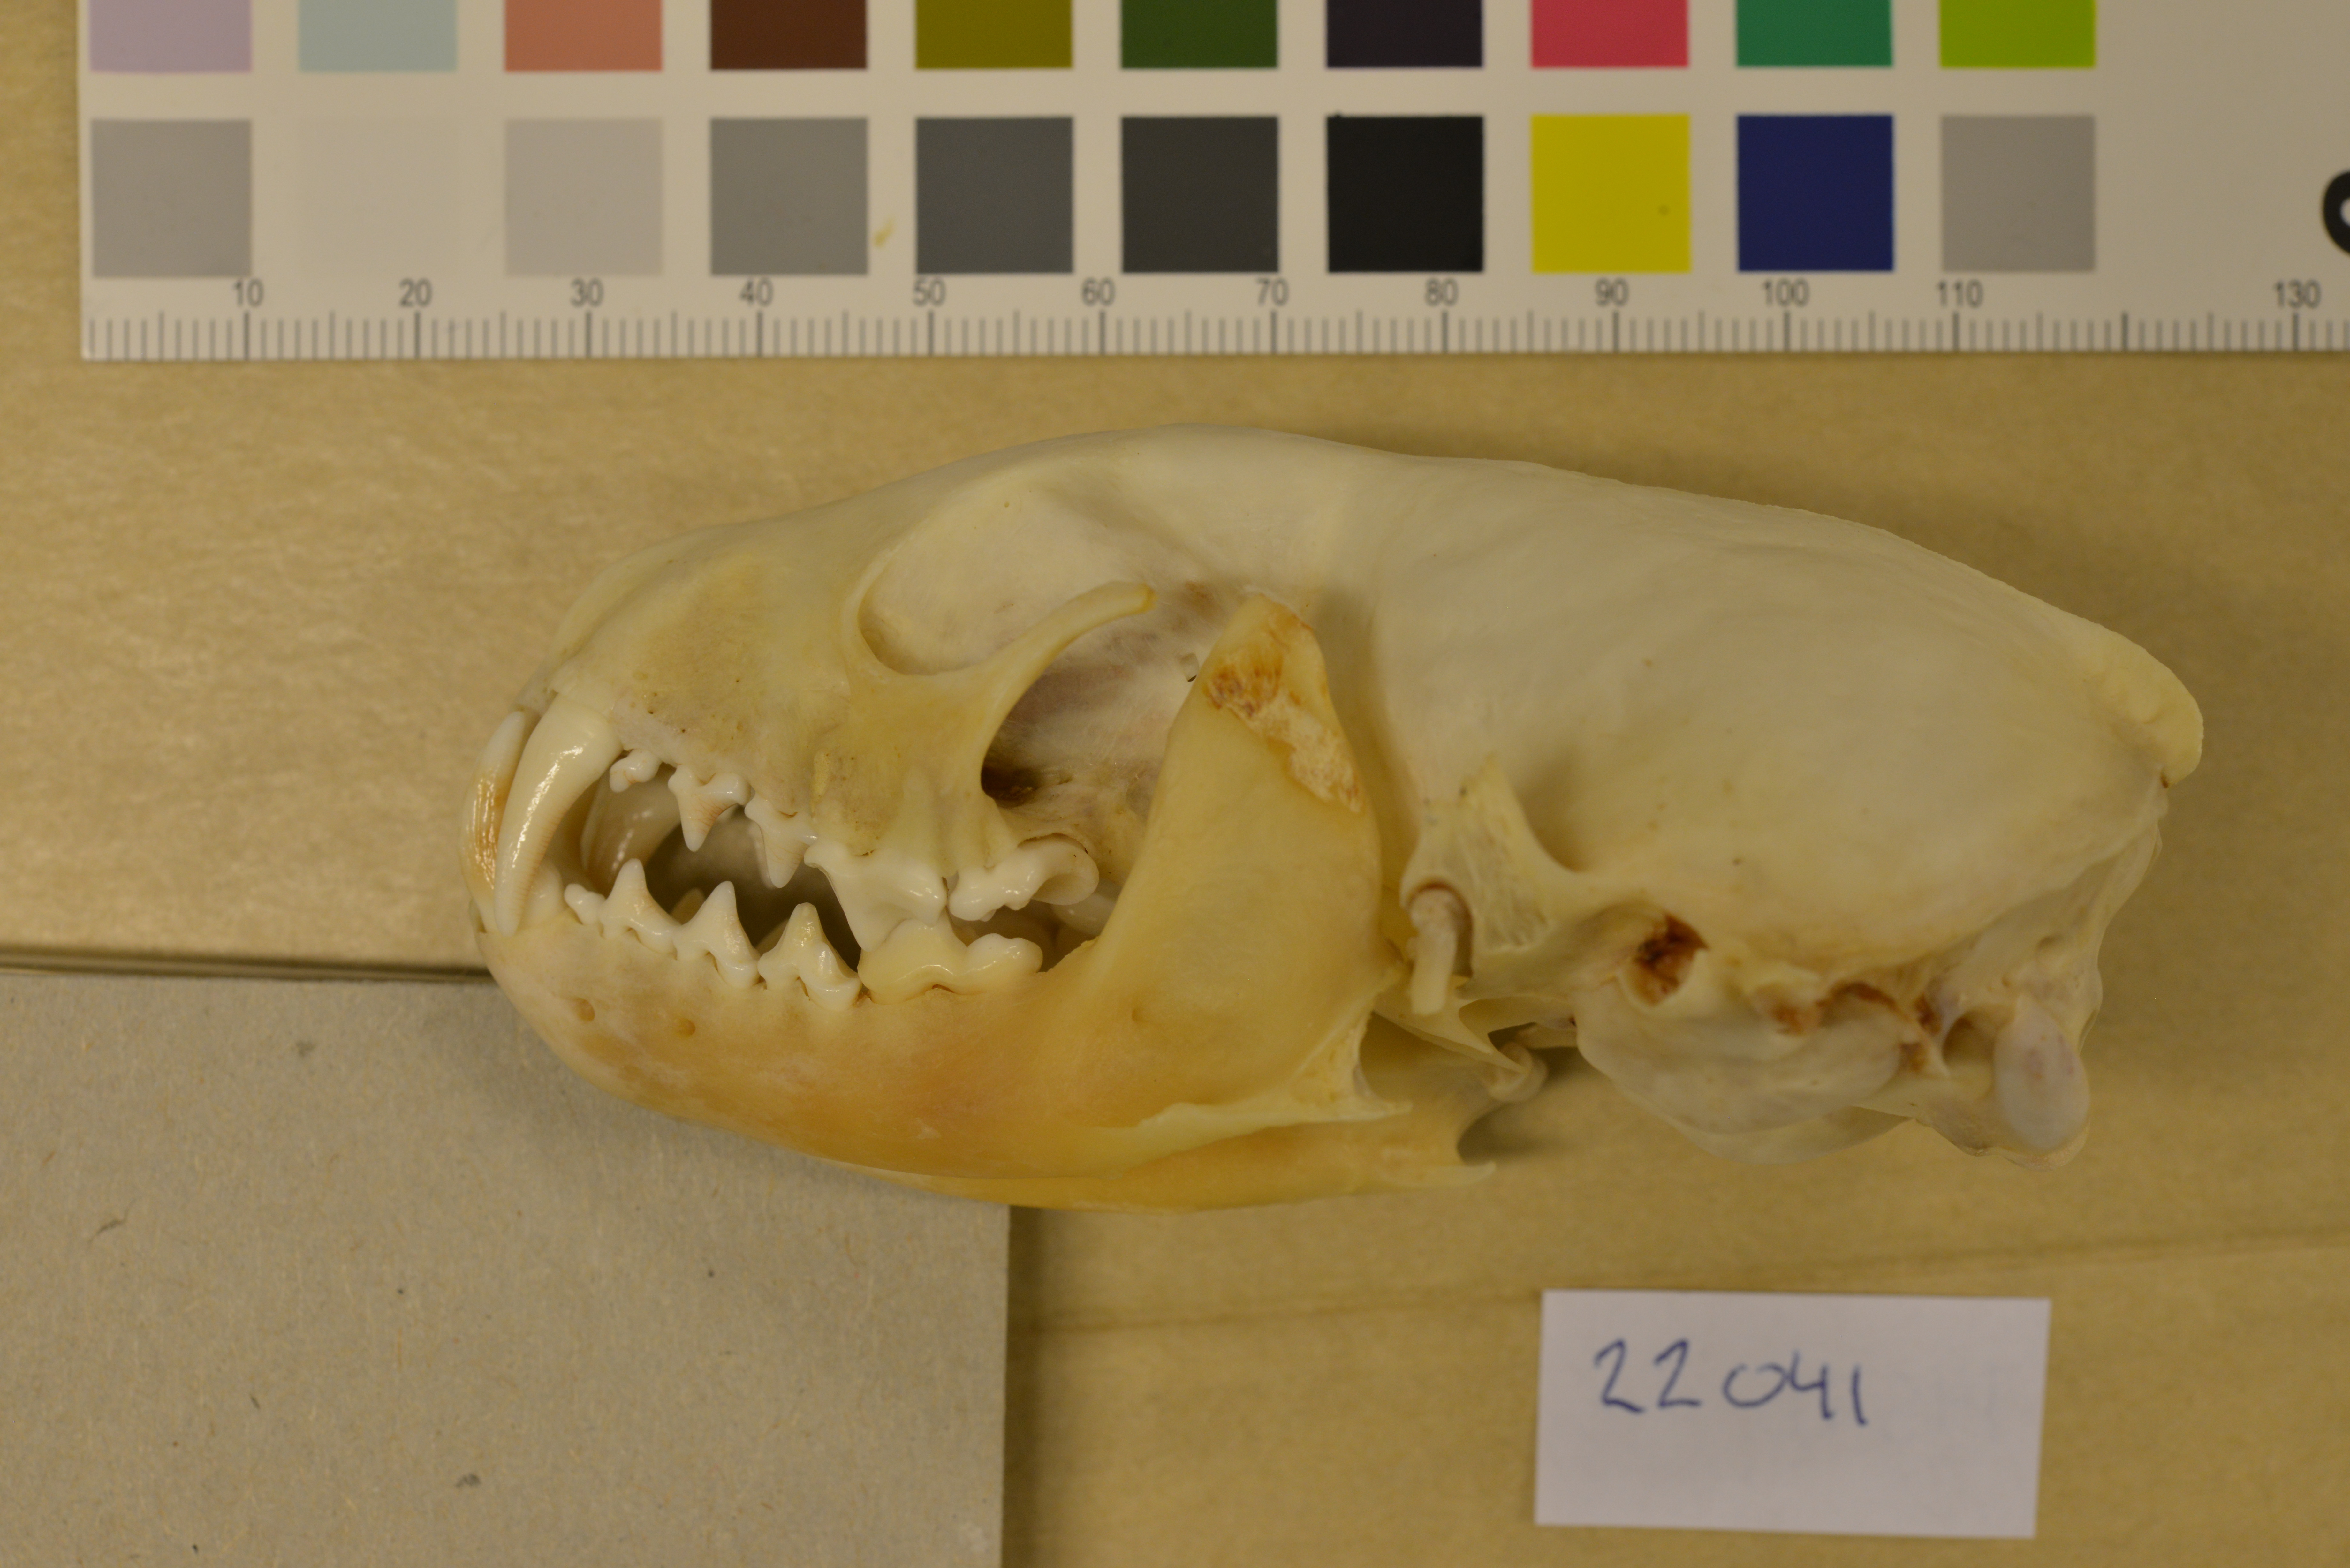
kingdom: Animalia
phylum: Chordata
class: Mammalia
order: Carnivora
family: Mustelidae
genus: Martes
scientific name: Martes martes
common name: European pine marten
